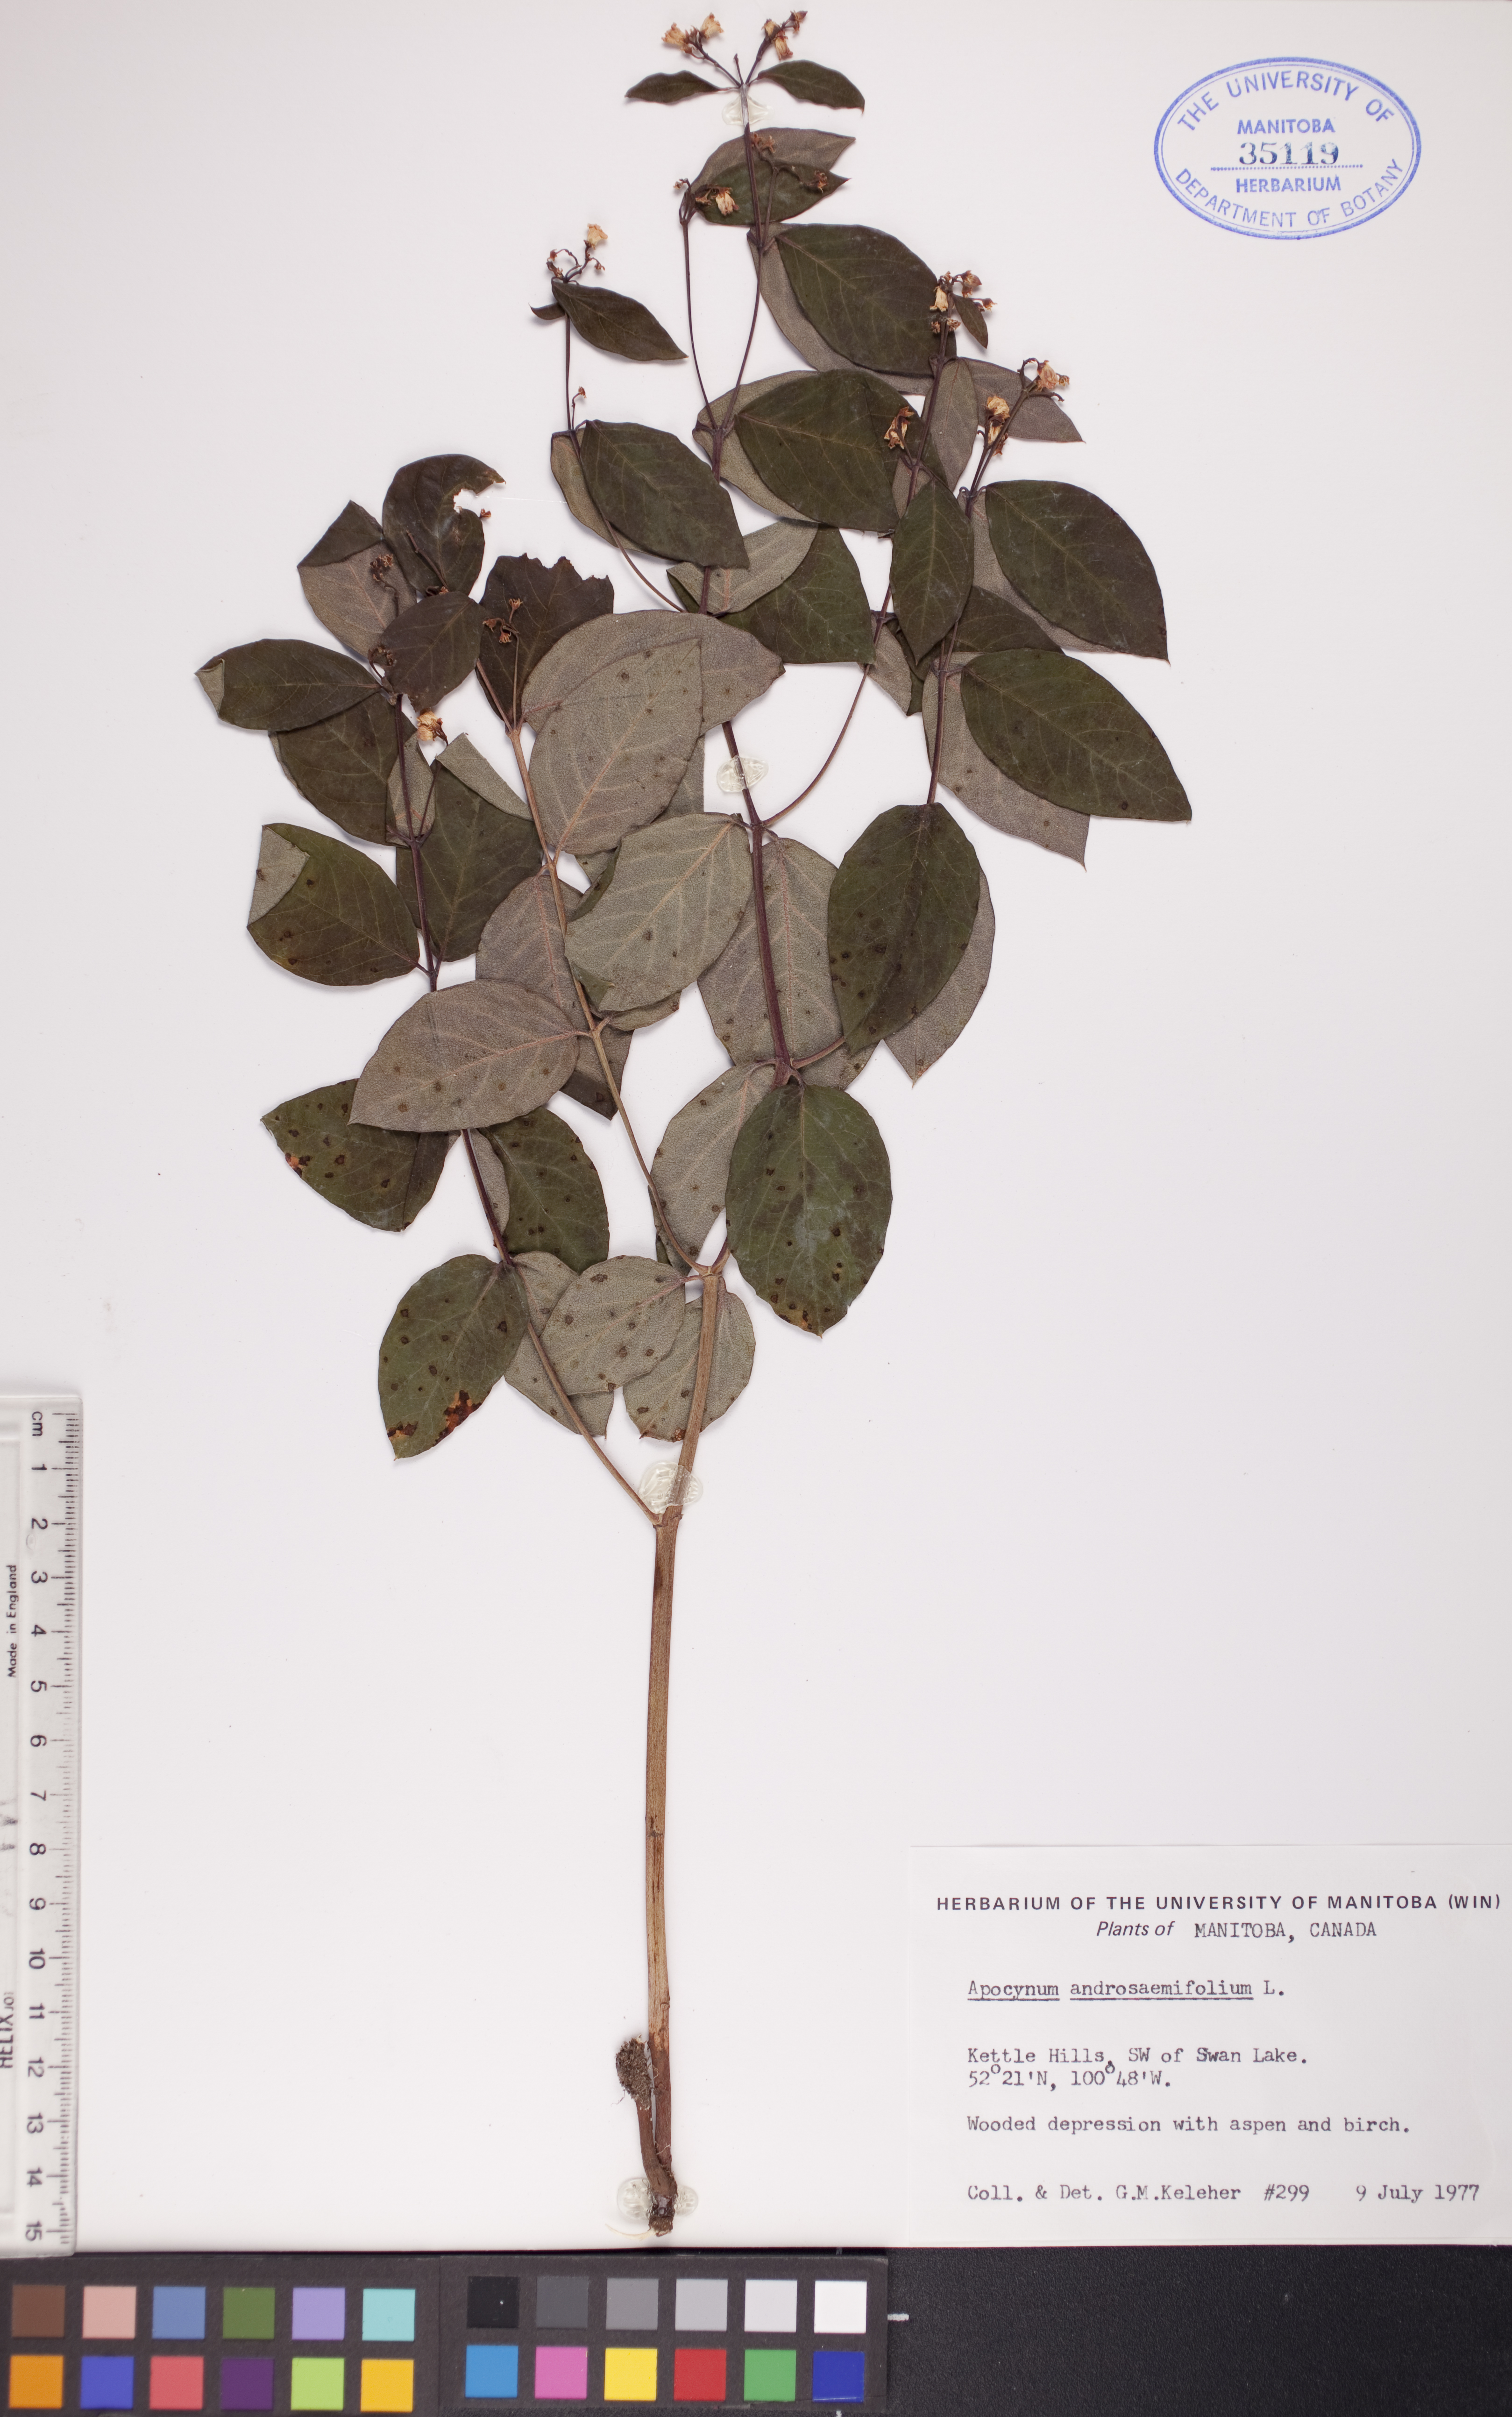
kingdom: Plantae
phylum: Tracheophyta
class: Magnoliopsida
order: Gentianales
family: Apocynaceae
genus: Apocynum
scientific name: Apocynum androsaemifolium
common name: Spreading dogbane
